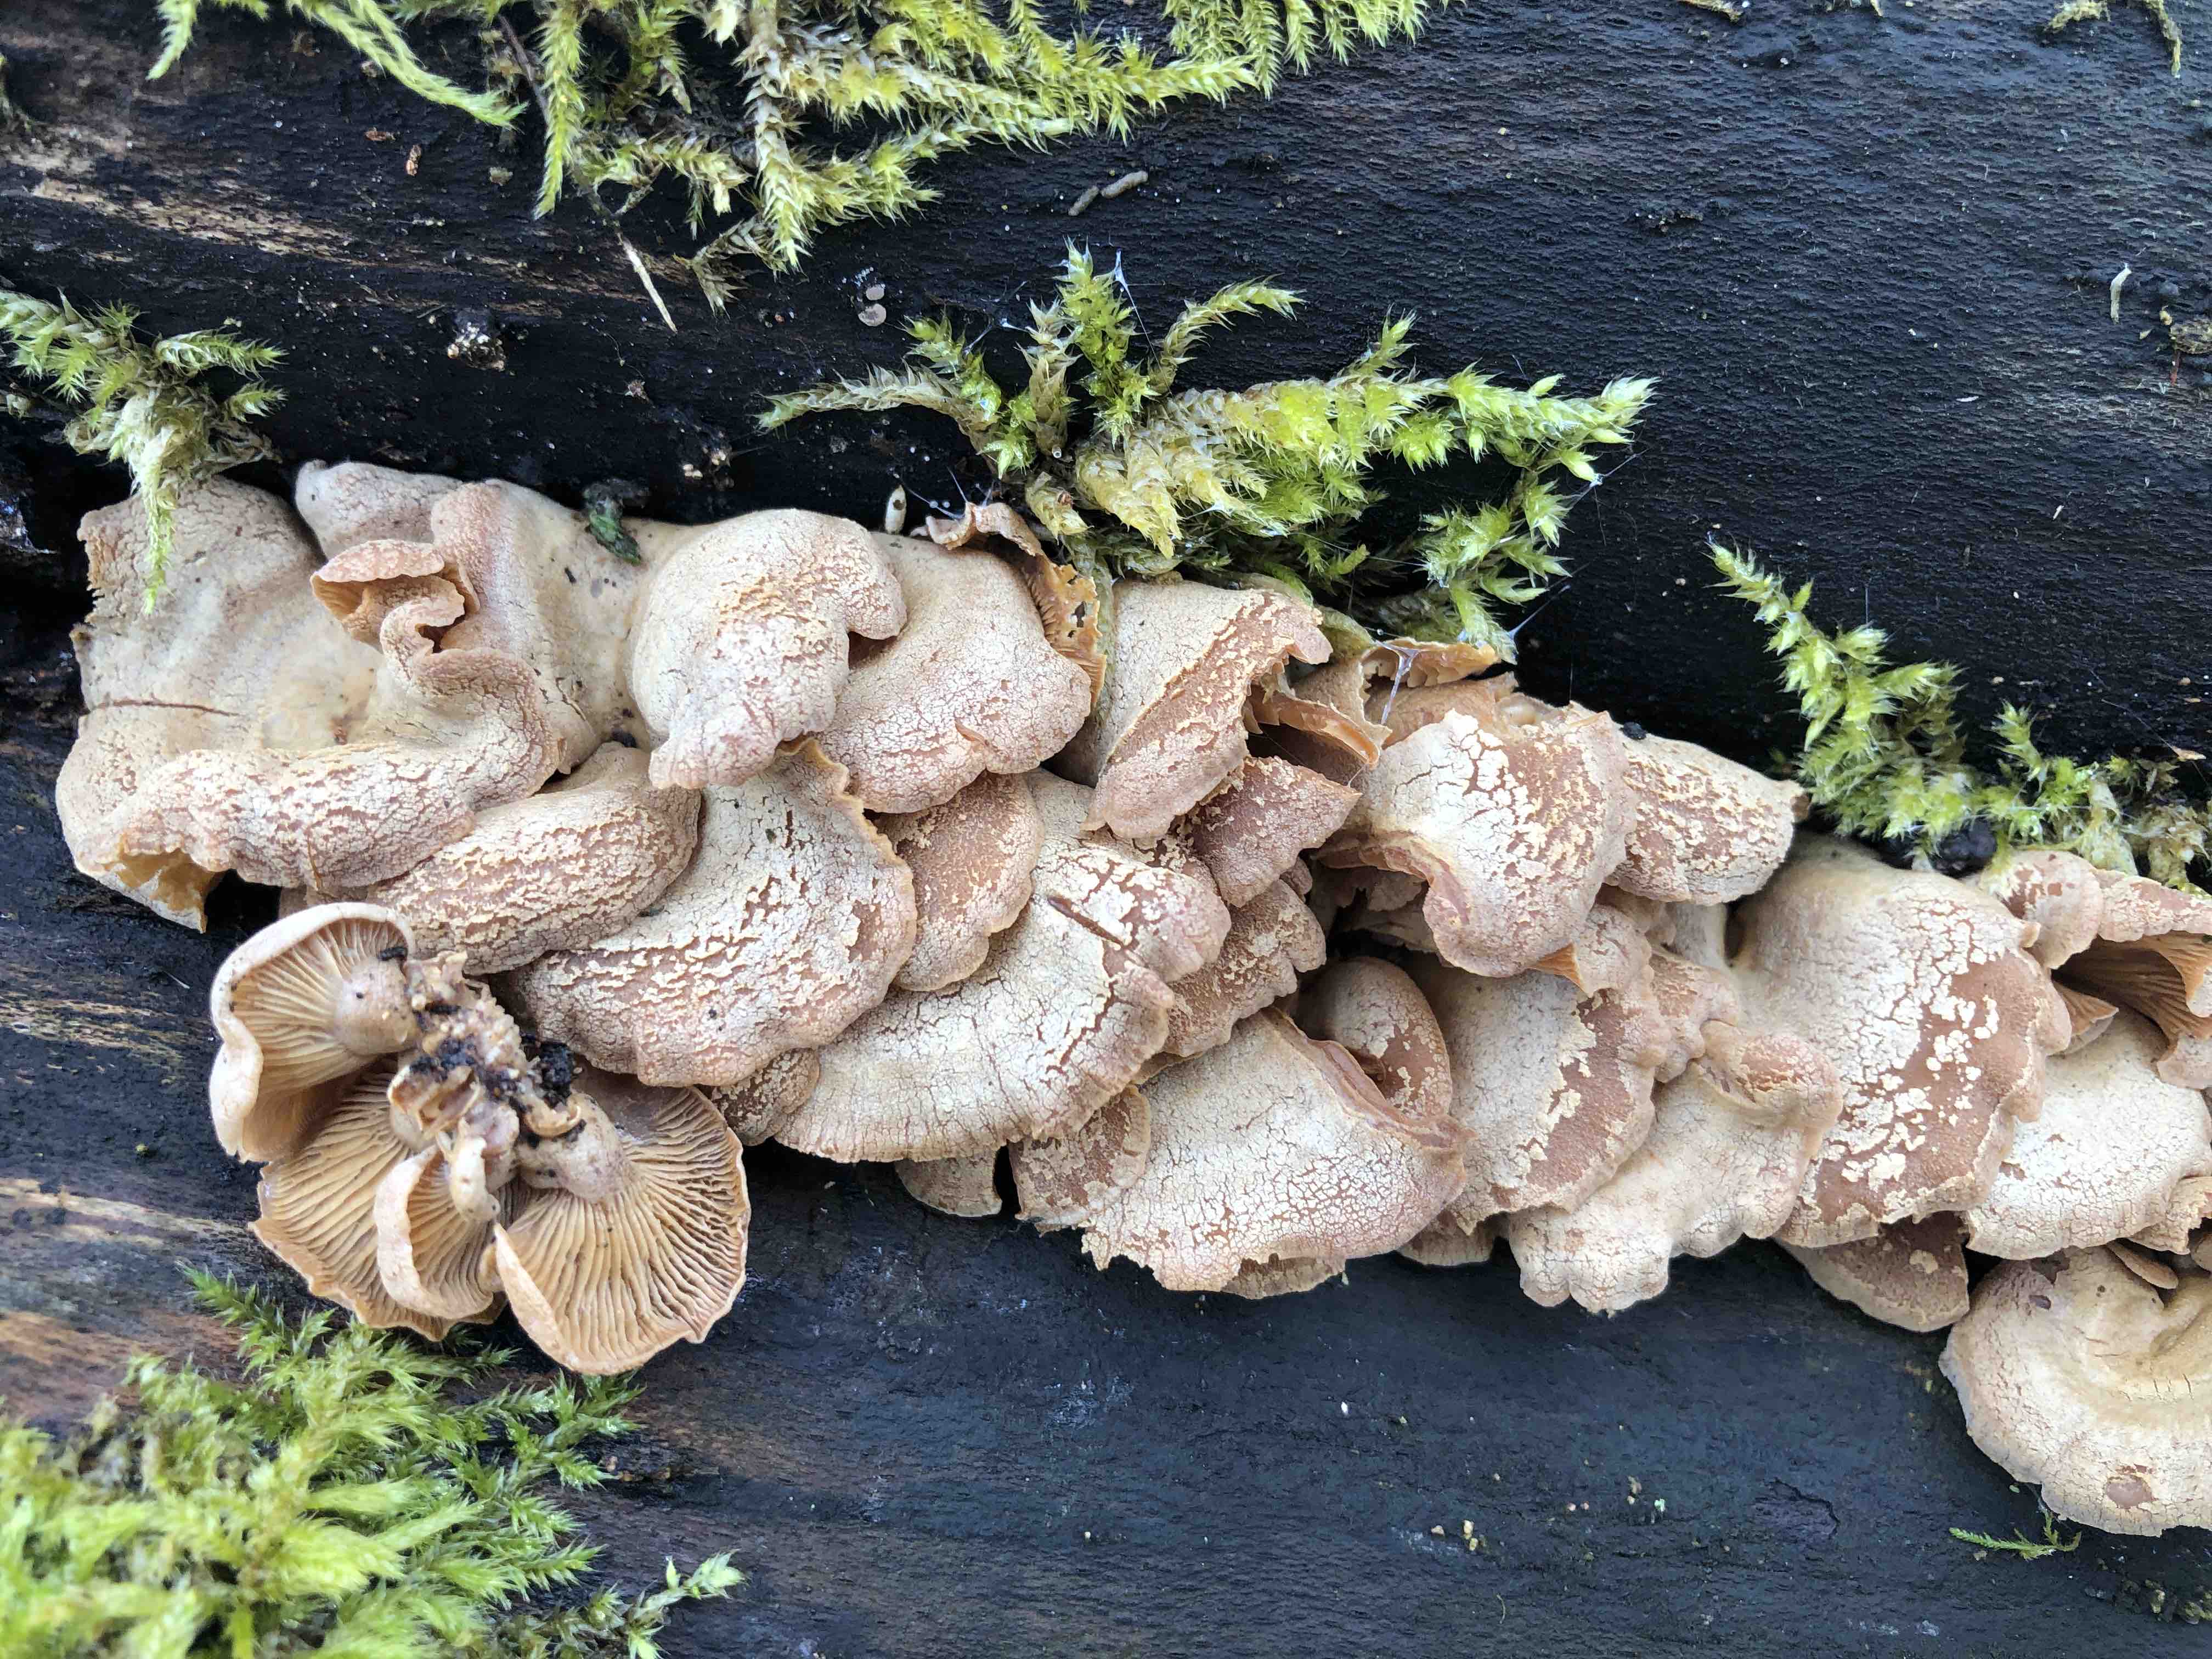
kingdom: Fungi
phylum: Basidiomycota
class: Agaricomycetes
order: Agaricales
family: Mycenaceae
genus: Panellus
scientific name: Panellus stipticus
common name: kliddet epaulethat
